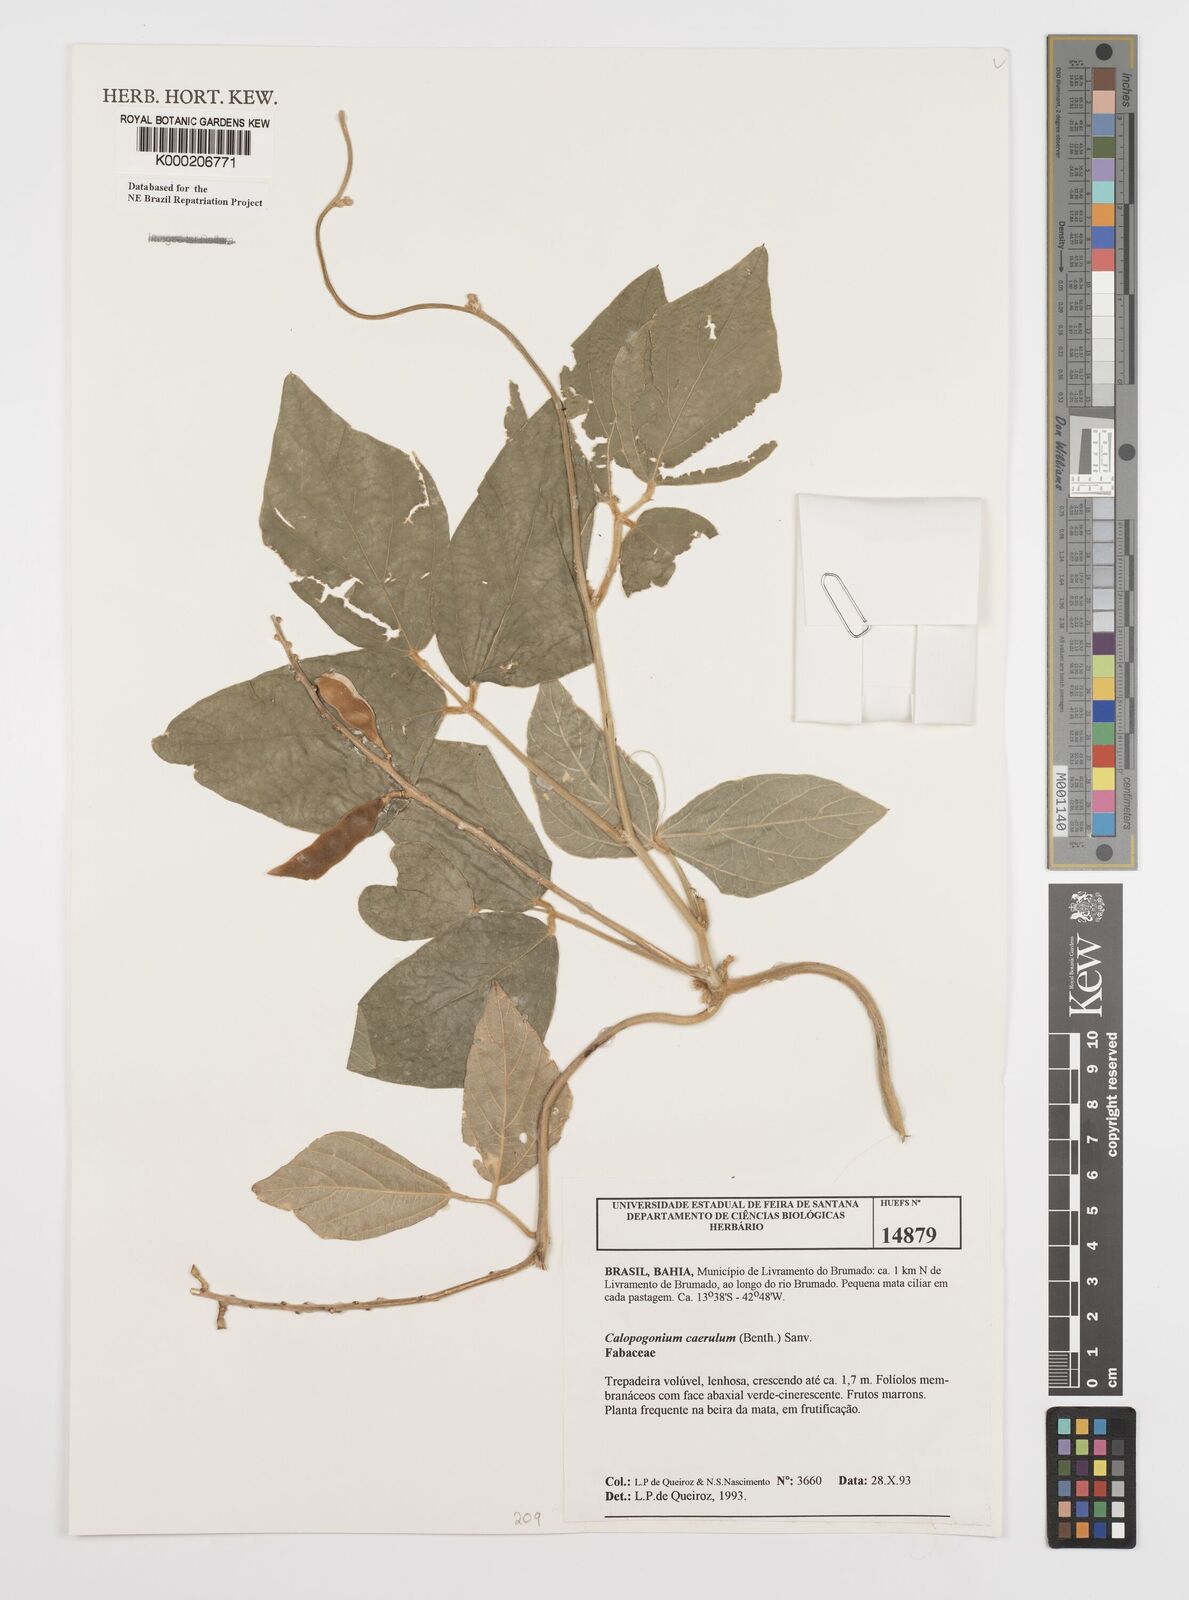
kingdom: Plantae
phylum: Tracheophyta
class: Magnoliopsida
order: Fabales
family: Fabaceae
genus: Calopogonium
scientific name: Calopogonium mucunoides
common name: Calopo
